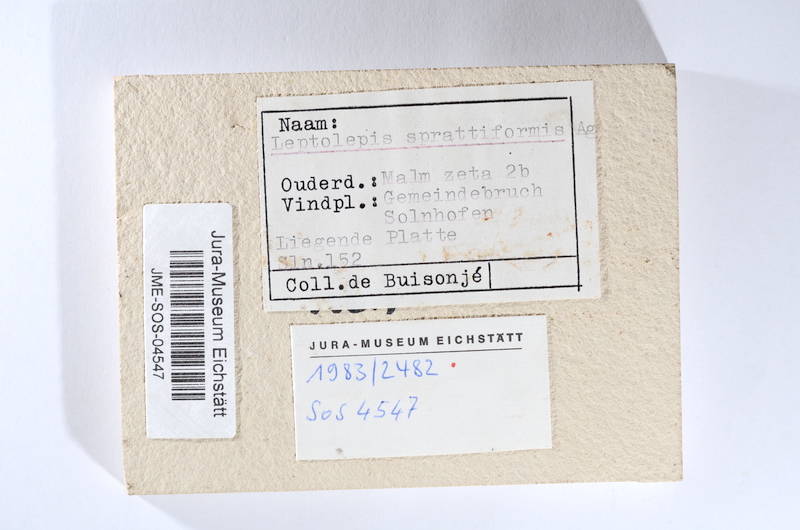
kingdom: Animalia
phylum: Chordata
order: Salmoniformes
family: Orthogonikleithridae
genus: Leptolepides
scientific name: Leptolepides sprattiformis
